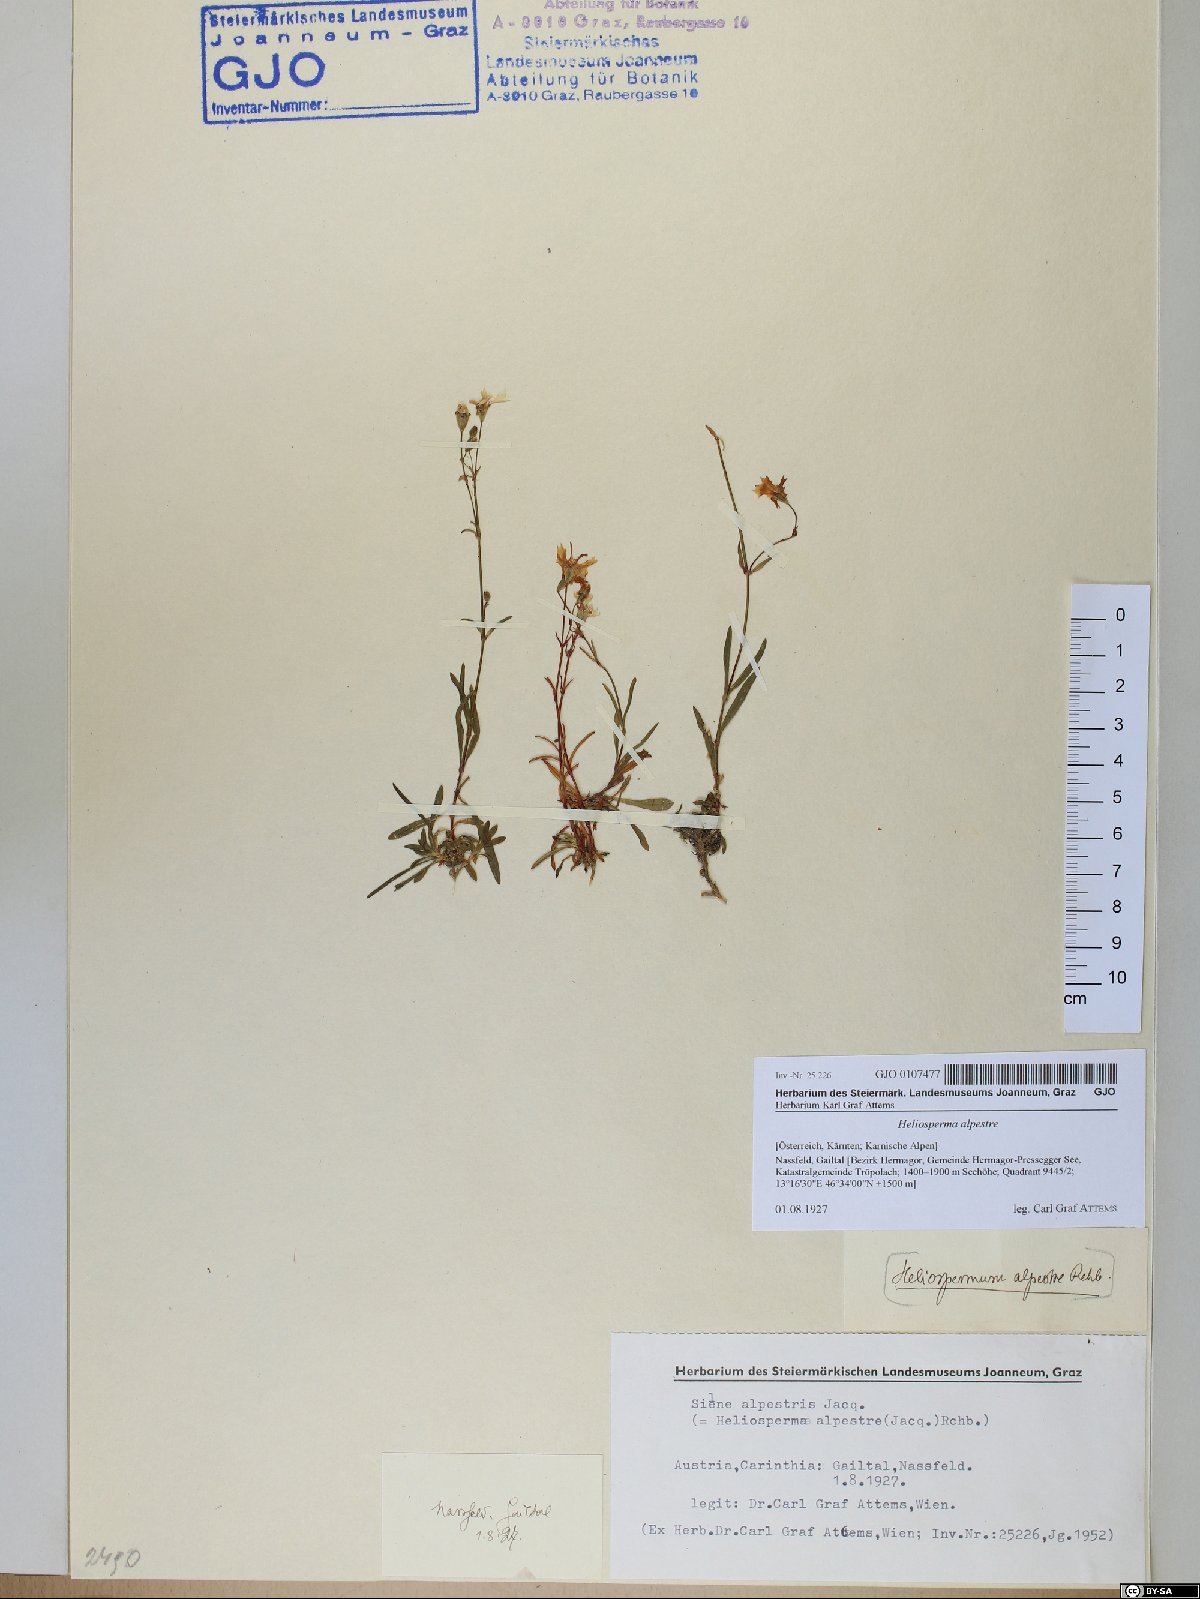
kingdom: Plantae
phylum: Tracheophyta
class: Magnoliopsida
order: Caryophyllales
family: Caryophyllaceae
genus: Heliosperma
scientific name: Heliosperma alpestre
